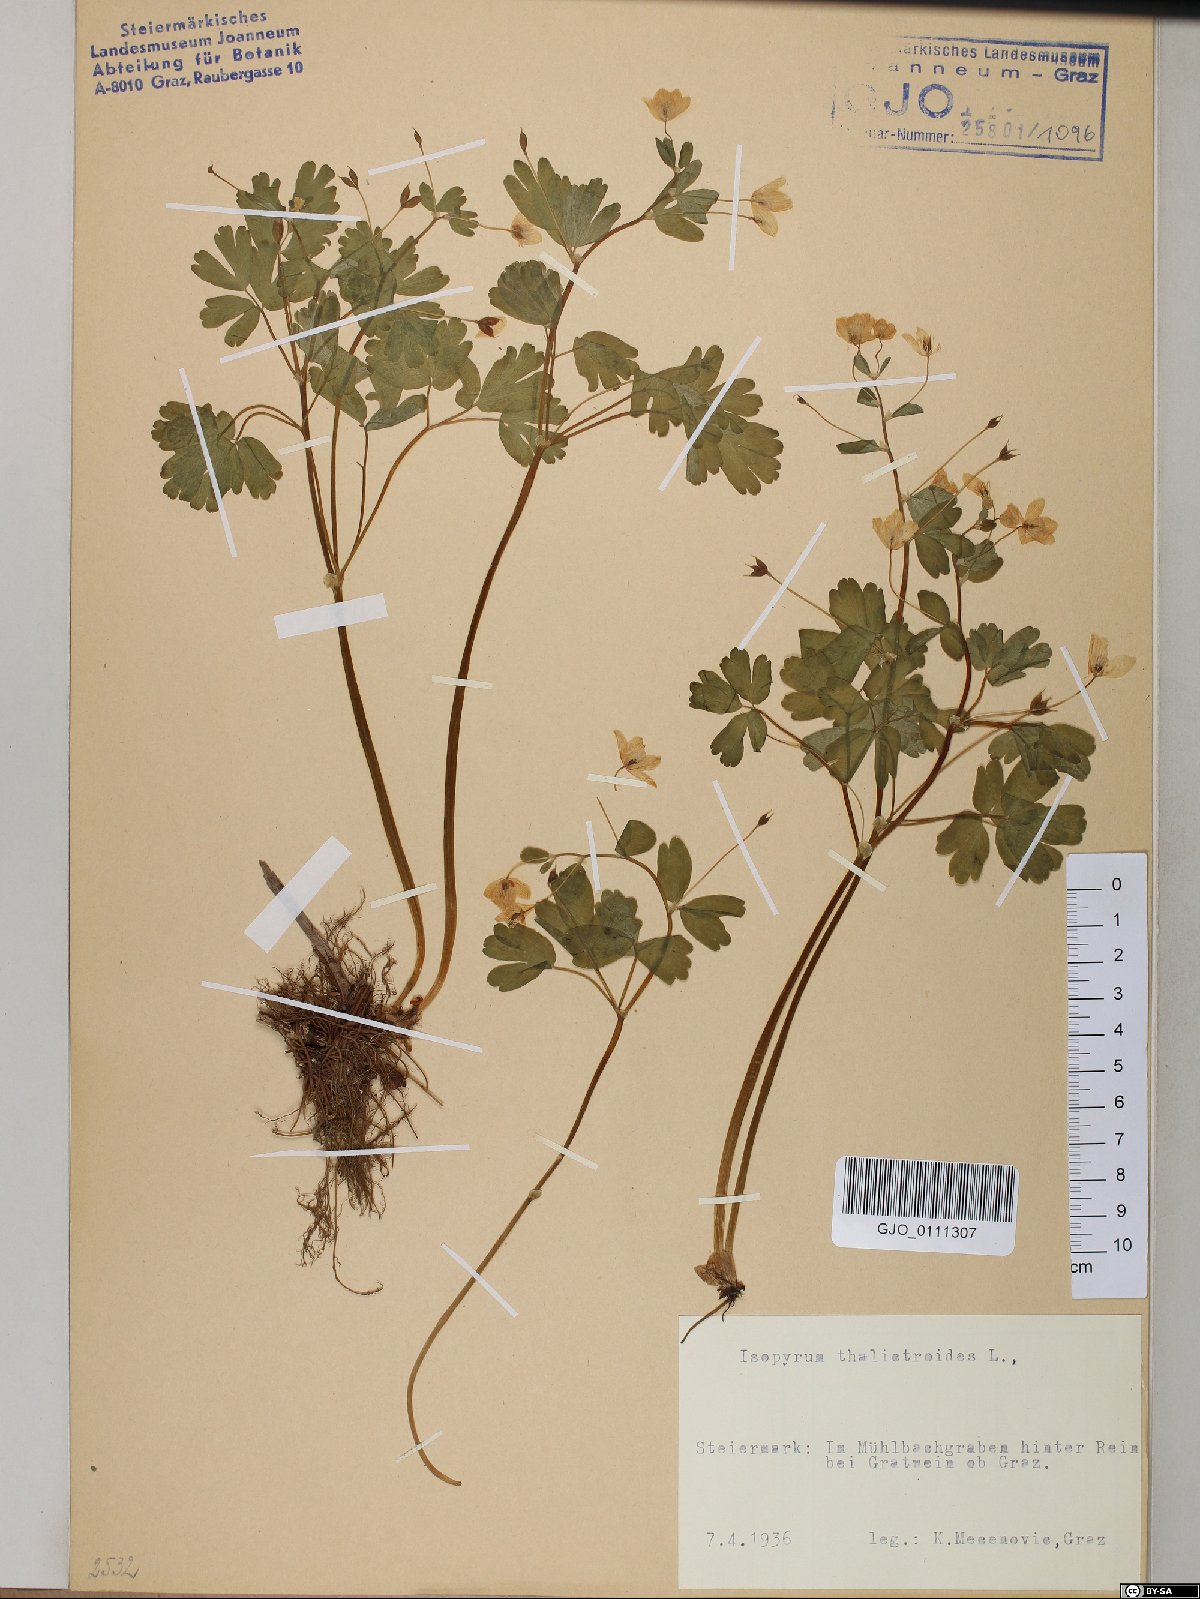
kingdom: Plantae
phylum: Tracheophyta
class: Magnoliopsida
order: Ranunculales
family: Ranunculaceae
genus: Isopyrum
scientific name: Isopyrum thalictroides
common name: Isopyrum
